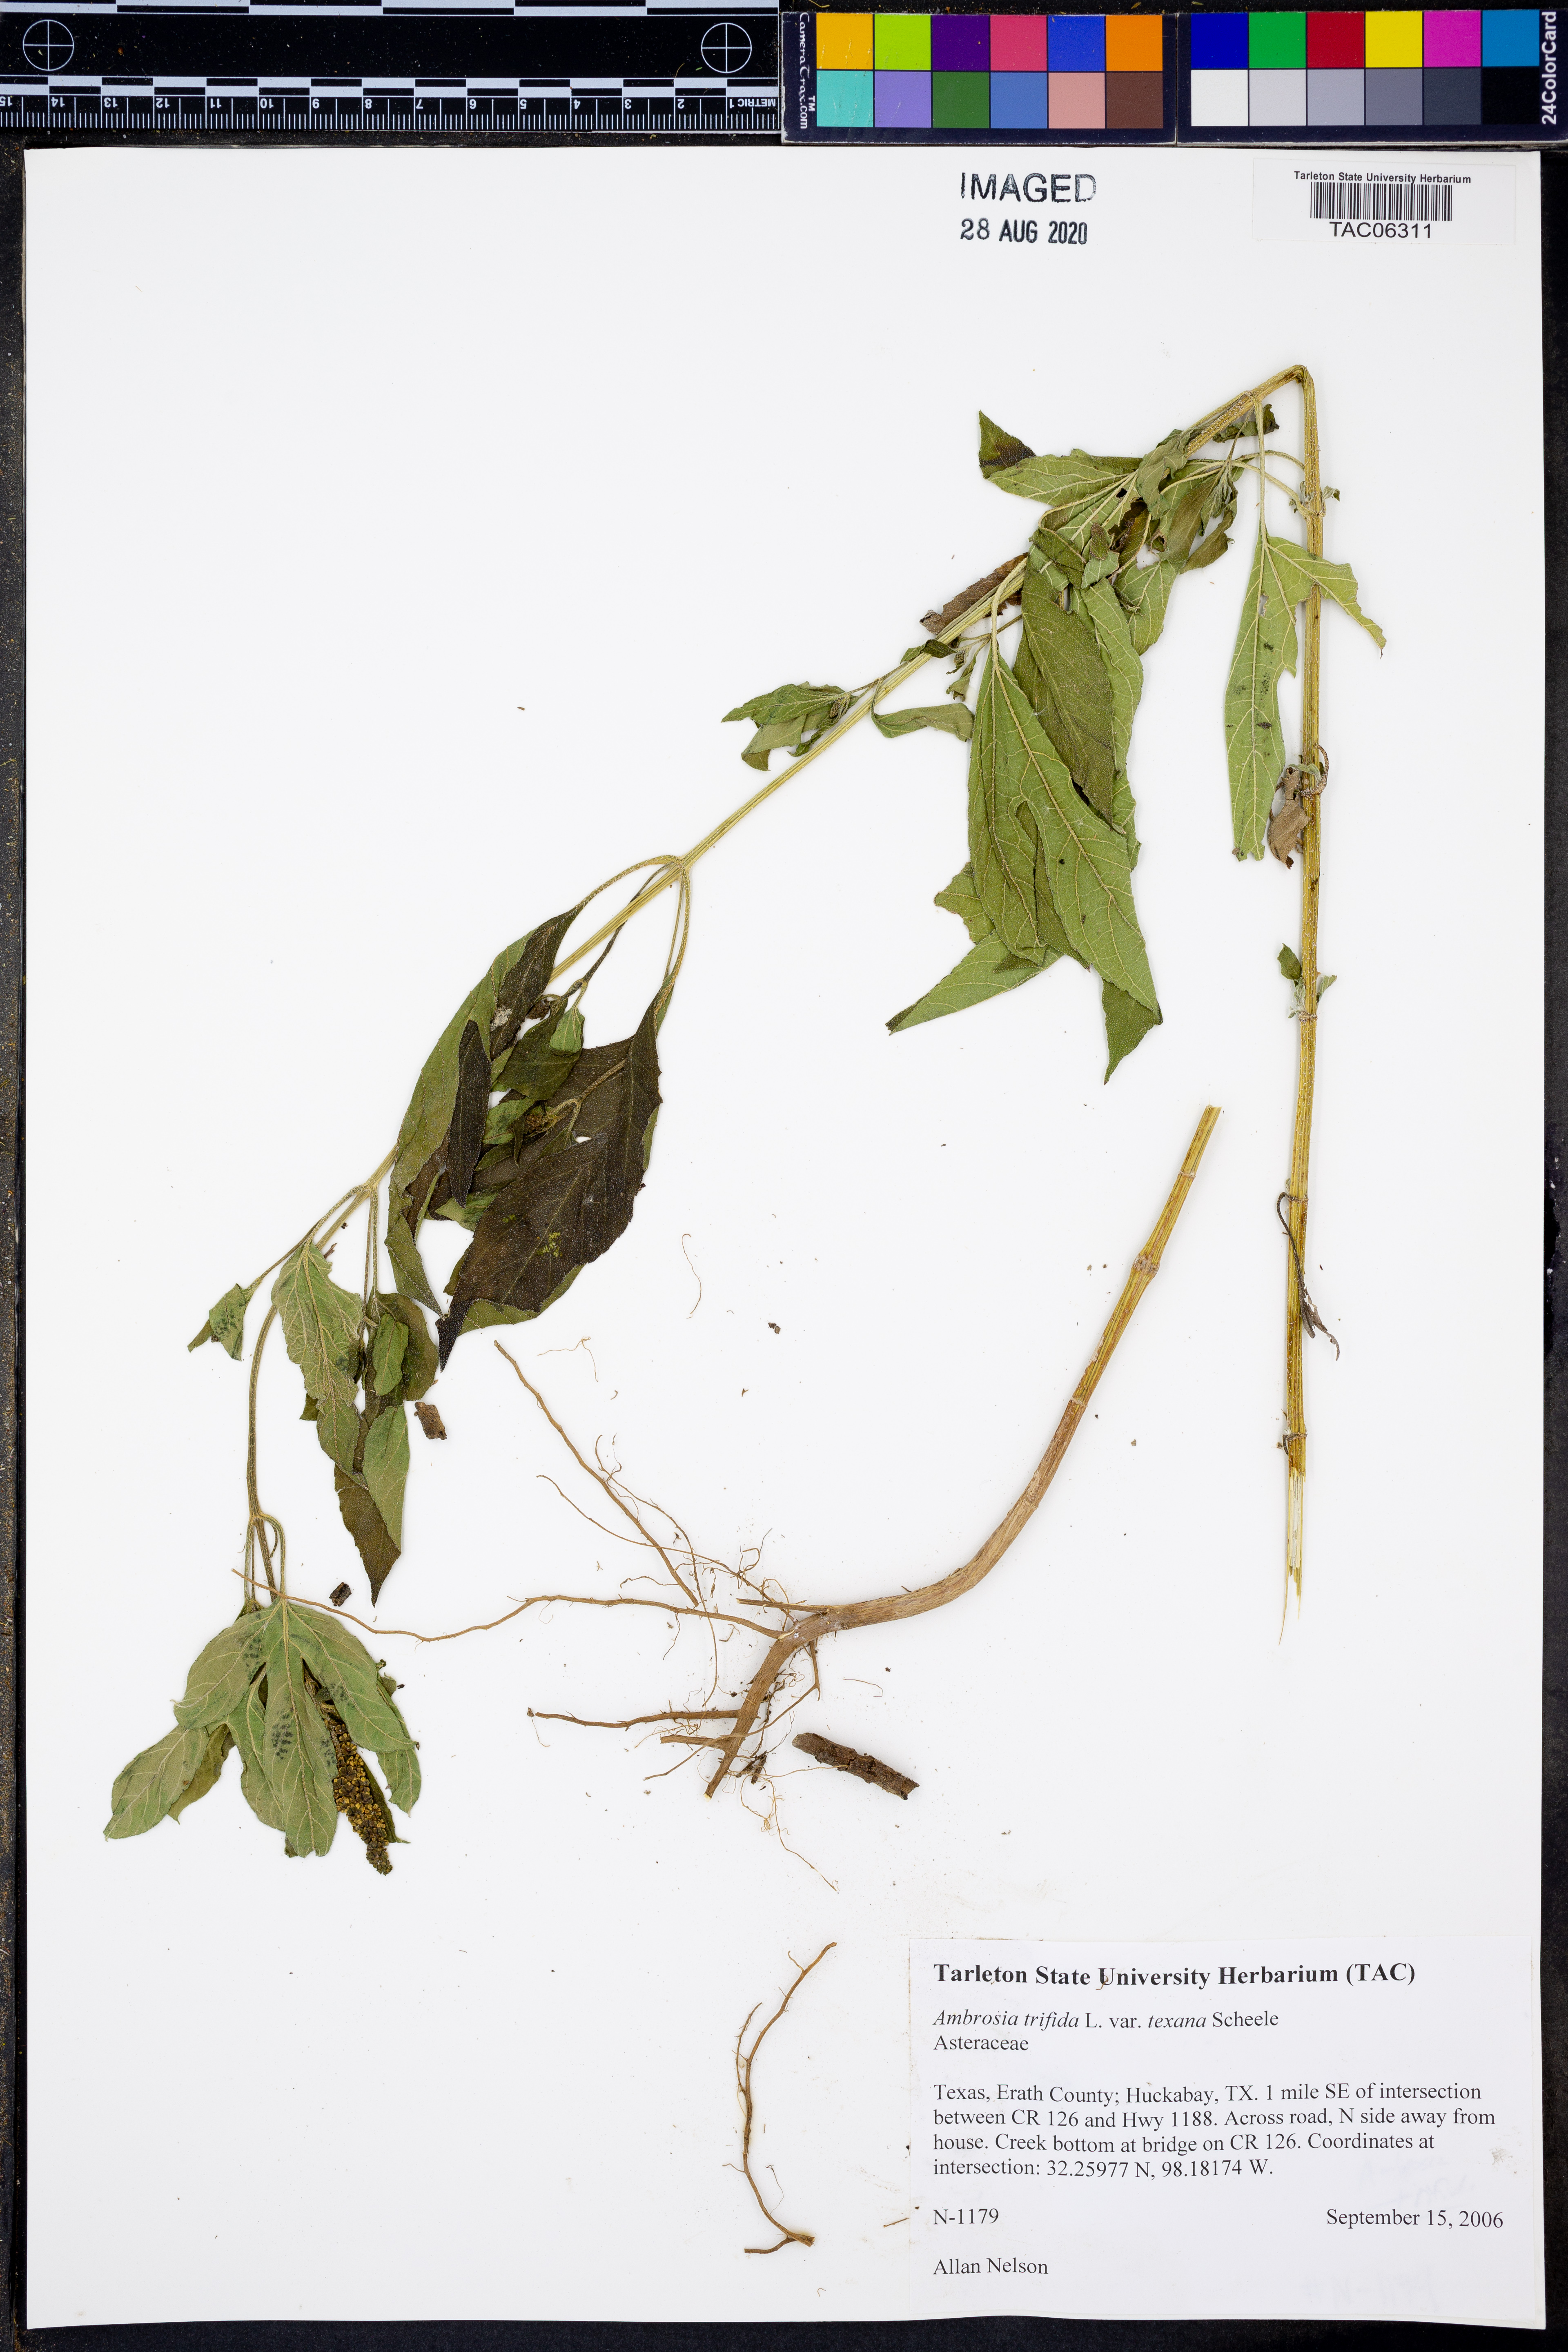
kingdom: Plantae
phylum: Tracheophyta
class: Magnoliopsida
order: Asterales
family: Asteraceae
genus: Ambrosia
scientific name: Ambrosia trifida
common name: Giant ragweed
